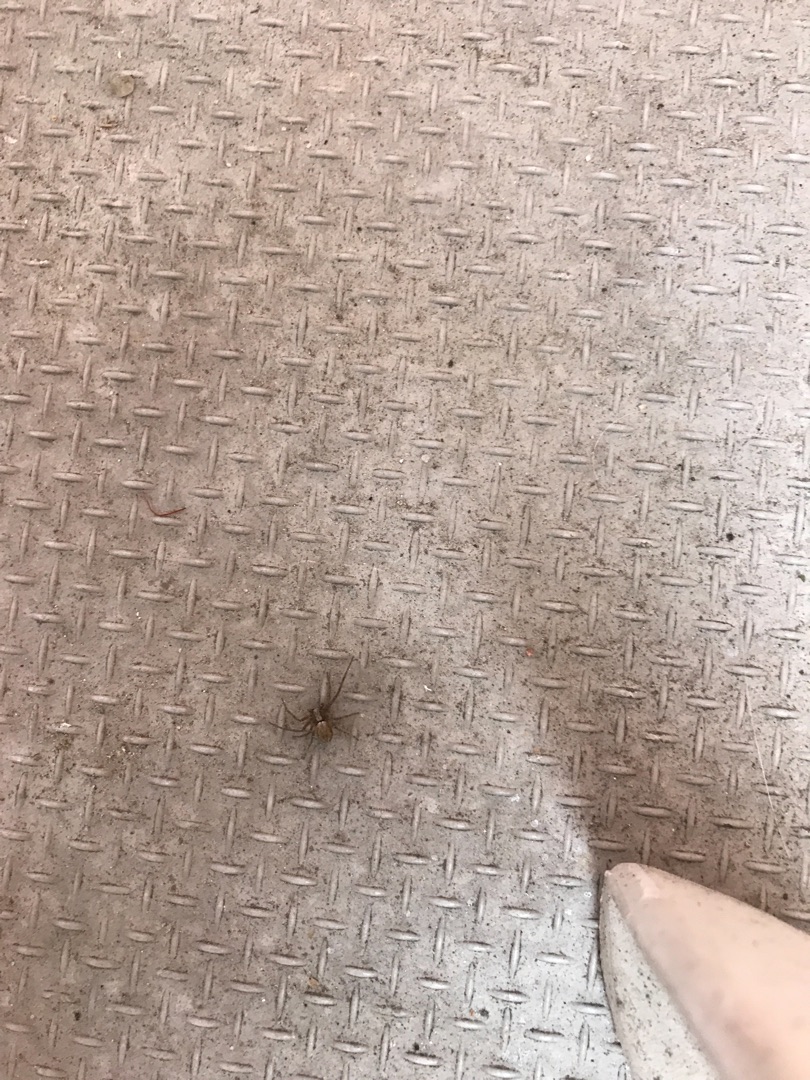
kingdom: Animalia
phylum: Arthropoda
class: Arachnida
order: Araneae
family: Philodromidae
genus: Philodromus
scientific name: Philodromus
